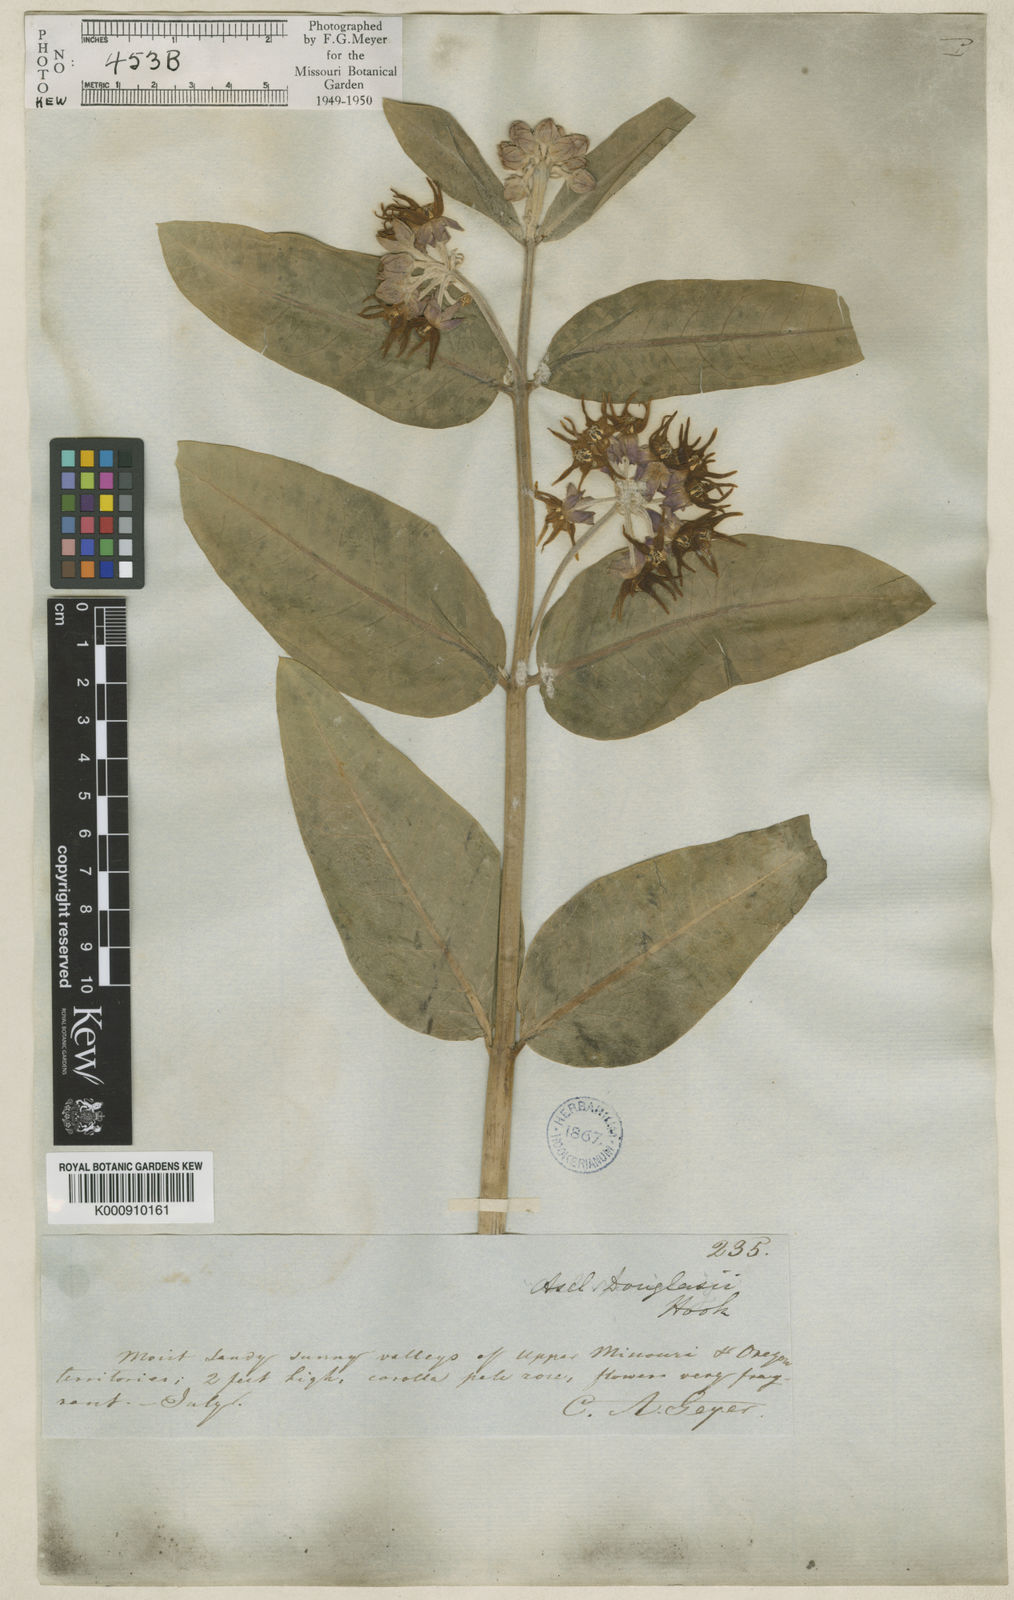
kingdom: Plantae
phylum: Tracheophyta
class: Magnoliopsida
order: Gentianales
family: Apocynaceae
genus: Asclepias
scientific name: Asclepias speciosa
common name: Showy milkweed
